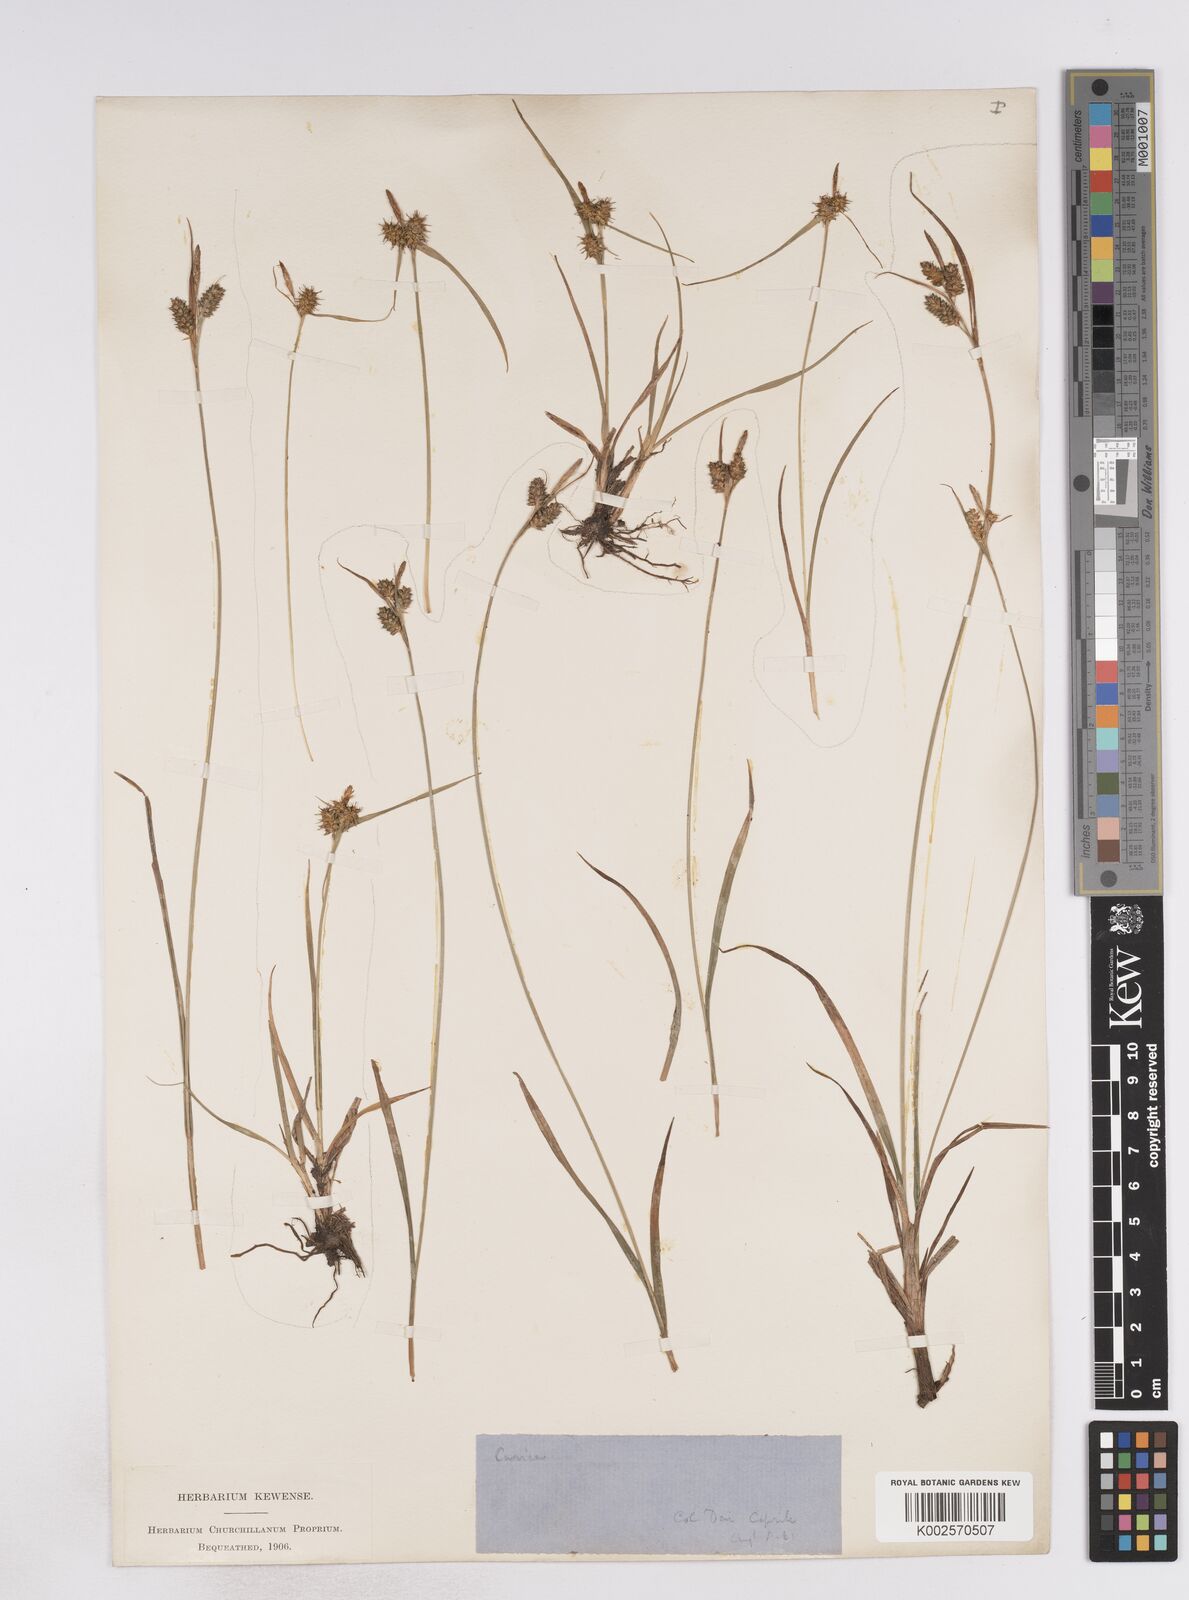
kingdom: Plantae
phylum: Tracheophyta
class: Liliopsida
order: Poales
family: Cyperaceae
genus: Carex
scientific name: Carex pallescens
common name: Pale sedge
